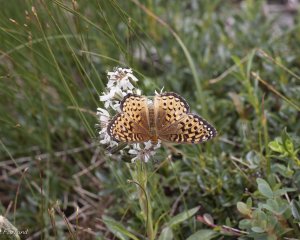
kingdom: Animalia
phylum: Arthropoda
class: Insecta
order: Lepidoptera
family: Nymphalidae
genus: Speyeria
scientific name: Speyeria atlantis
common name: Atlantis Fritillary
